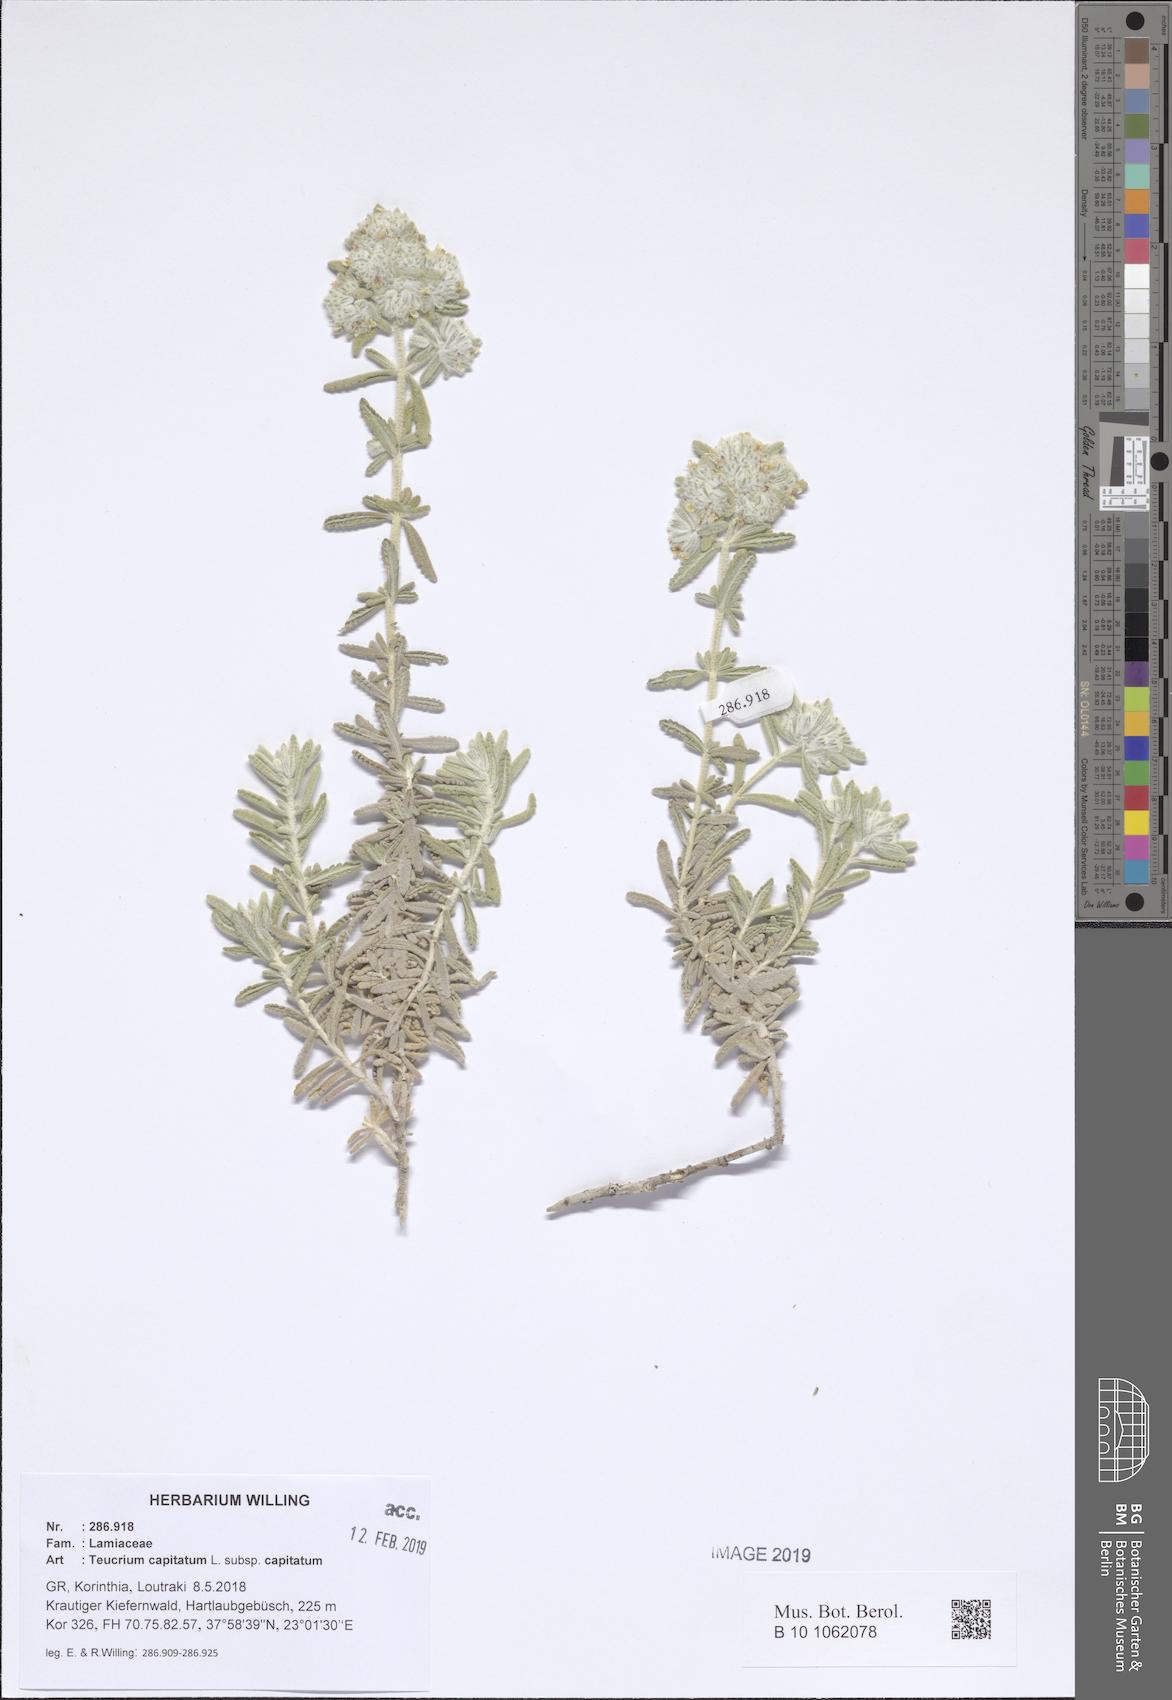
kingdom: Plantae
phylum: Tracheophyta
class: Magnoliopsida
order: Lamiales
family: Lamiaceae
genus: Teucrium
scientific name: Teucrium capitatum
